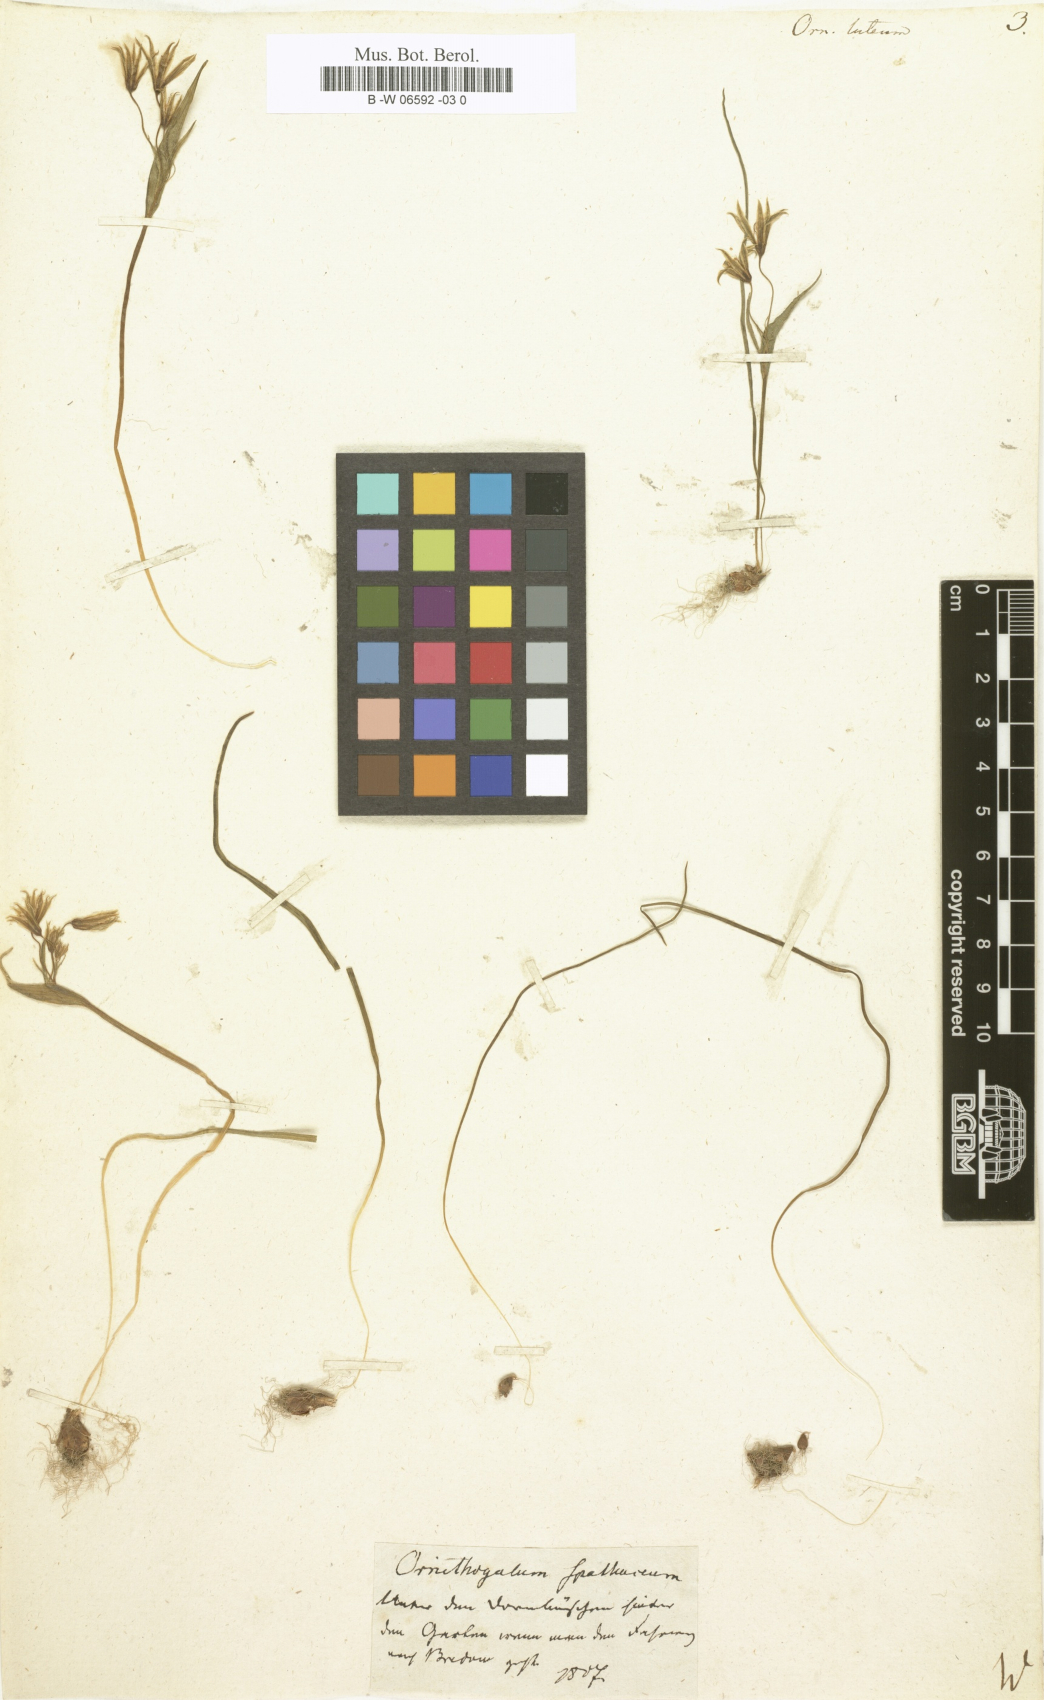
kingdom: Plantae
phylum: Tracheophyta
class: Liliopsida
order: Liliales
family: Liliaceae
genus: Gagea
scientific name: Gagea lutea
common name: Yellow star-of-bethlehem
